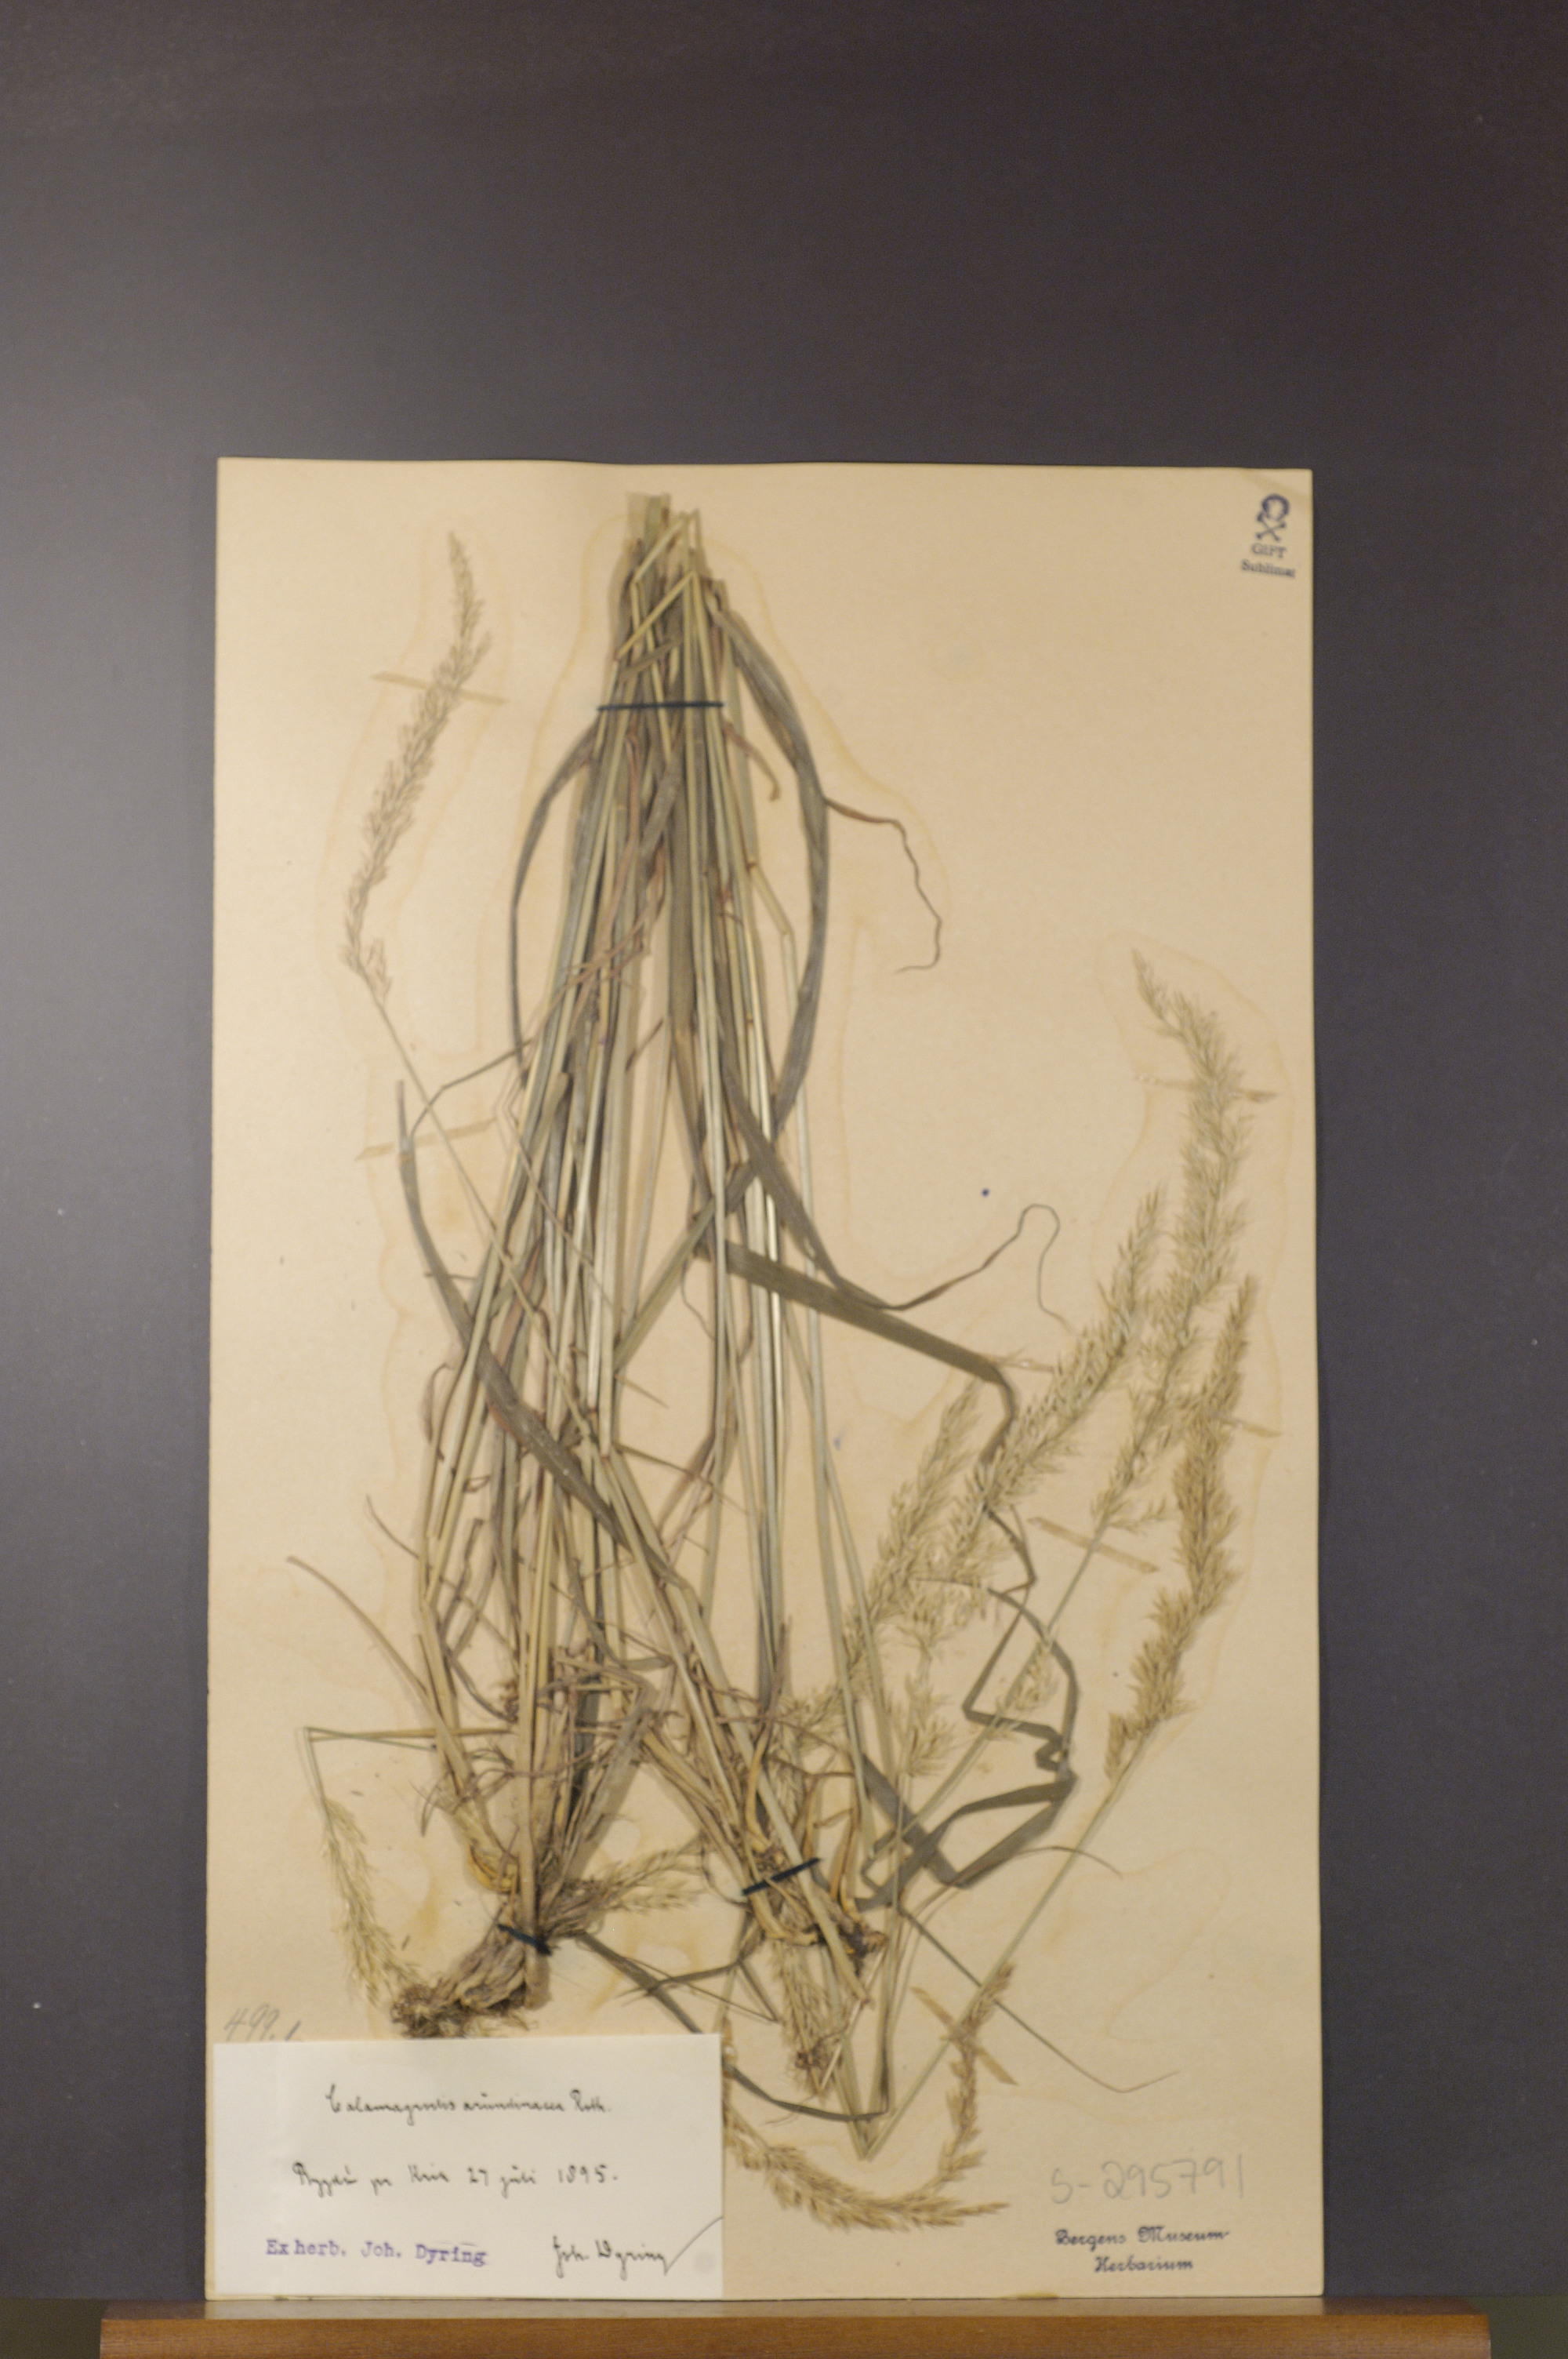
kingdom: Plantae
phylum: Tracheophyta
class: Liliopsida
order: Poales
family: Poaceae
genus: Calamagrostis
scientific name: Calamagrostis arundinacea
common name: Metskastik
